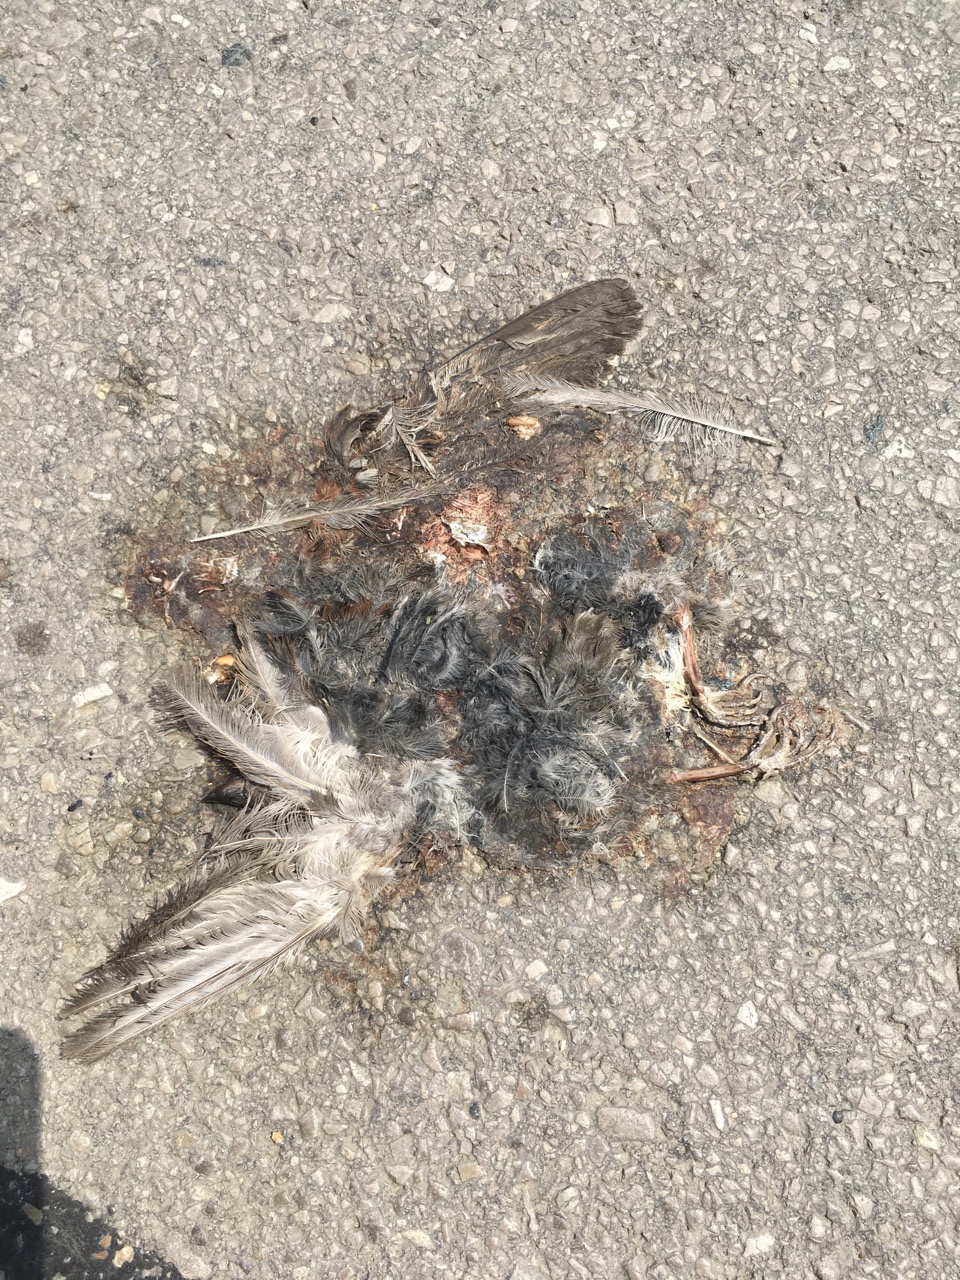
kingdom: Animalia
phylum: Chordata
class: Aves
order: Passeriformes
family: Passeridae
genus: Passer
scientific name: Passer
